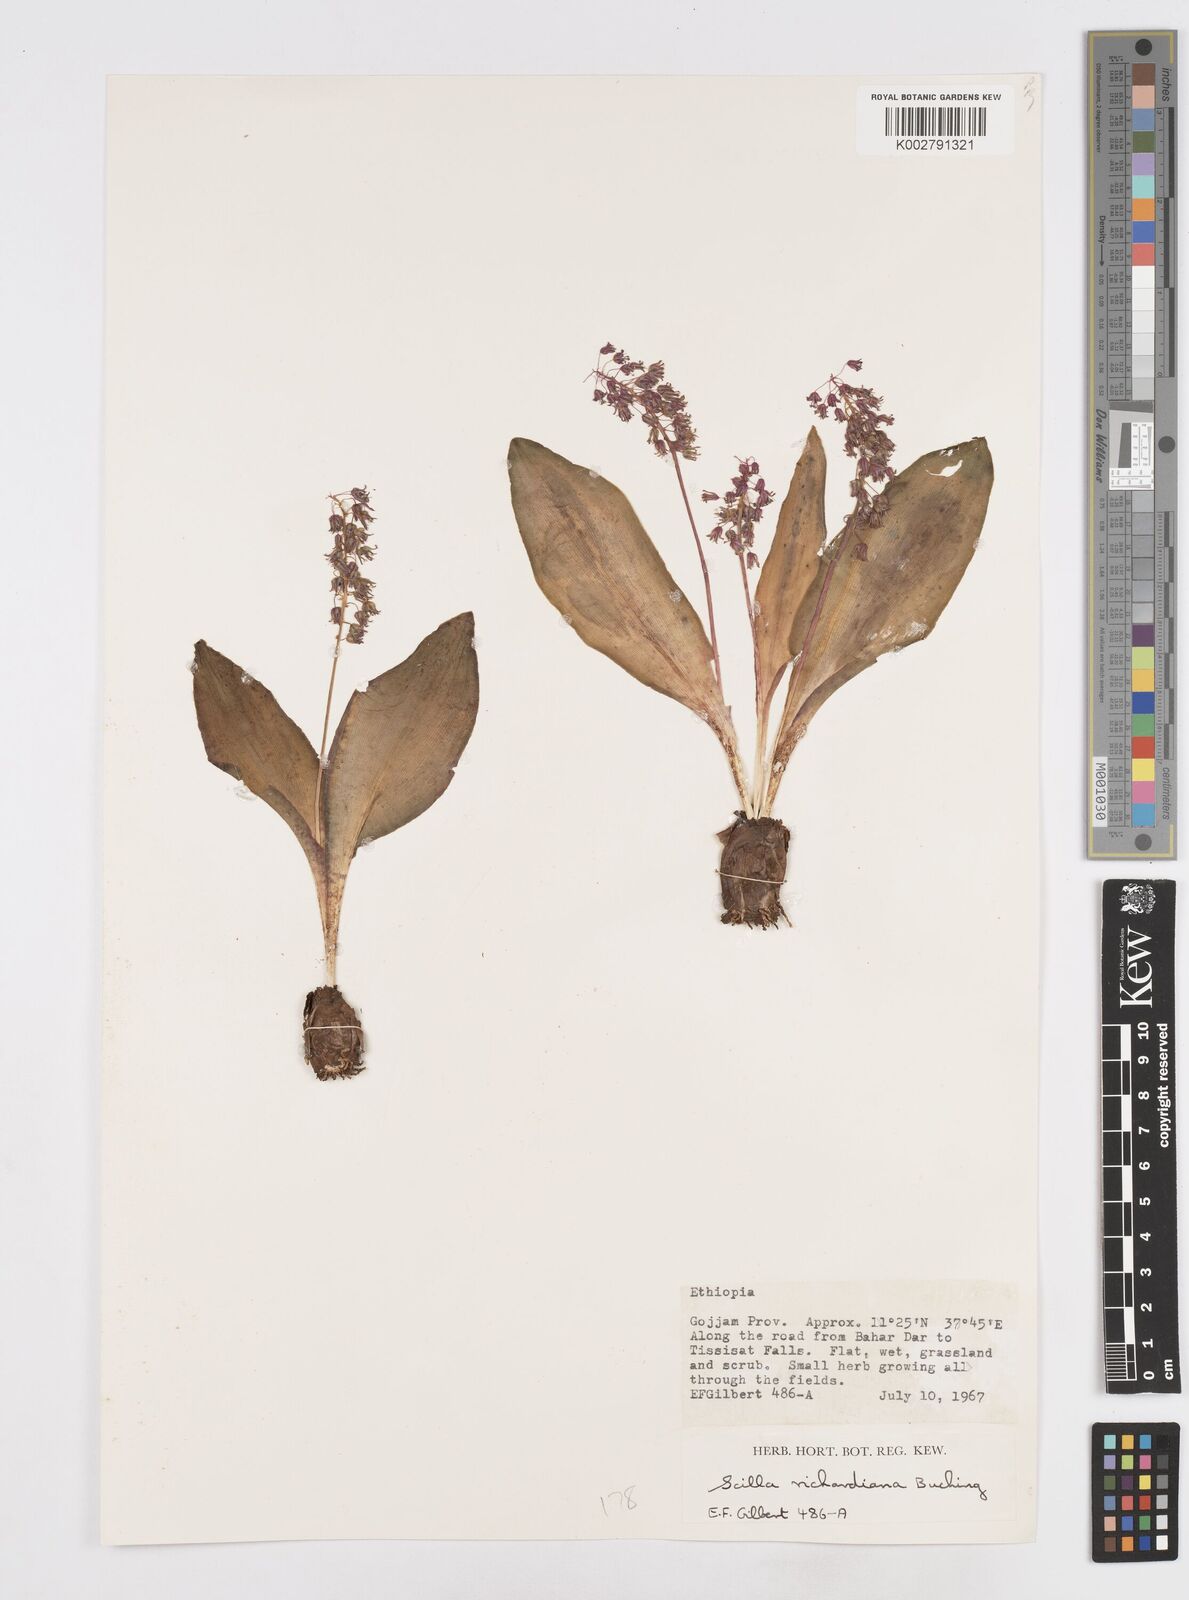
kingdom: Plantae
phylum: Tracheophyta
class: Liliopsida
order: Asparagales
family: Asparagaceae
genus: Ledebouria
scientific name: Ledebouria revoluta
